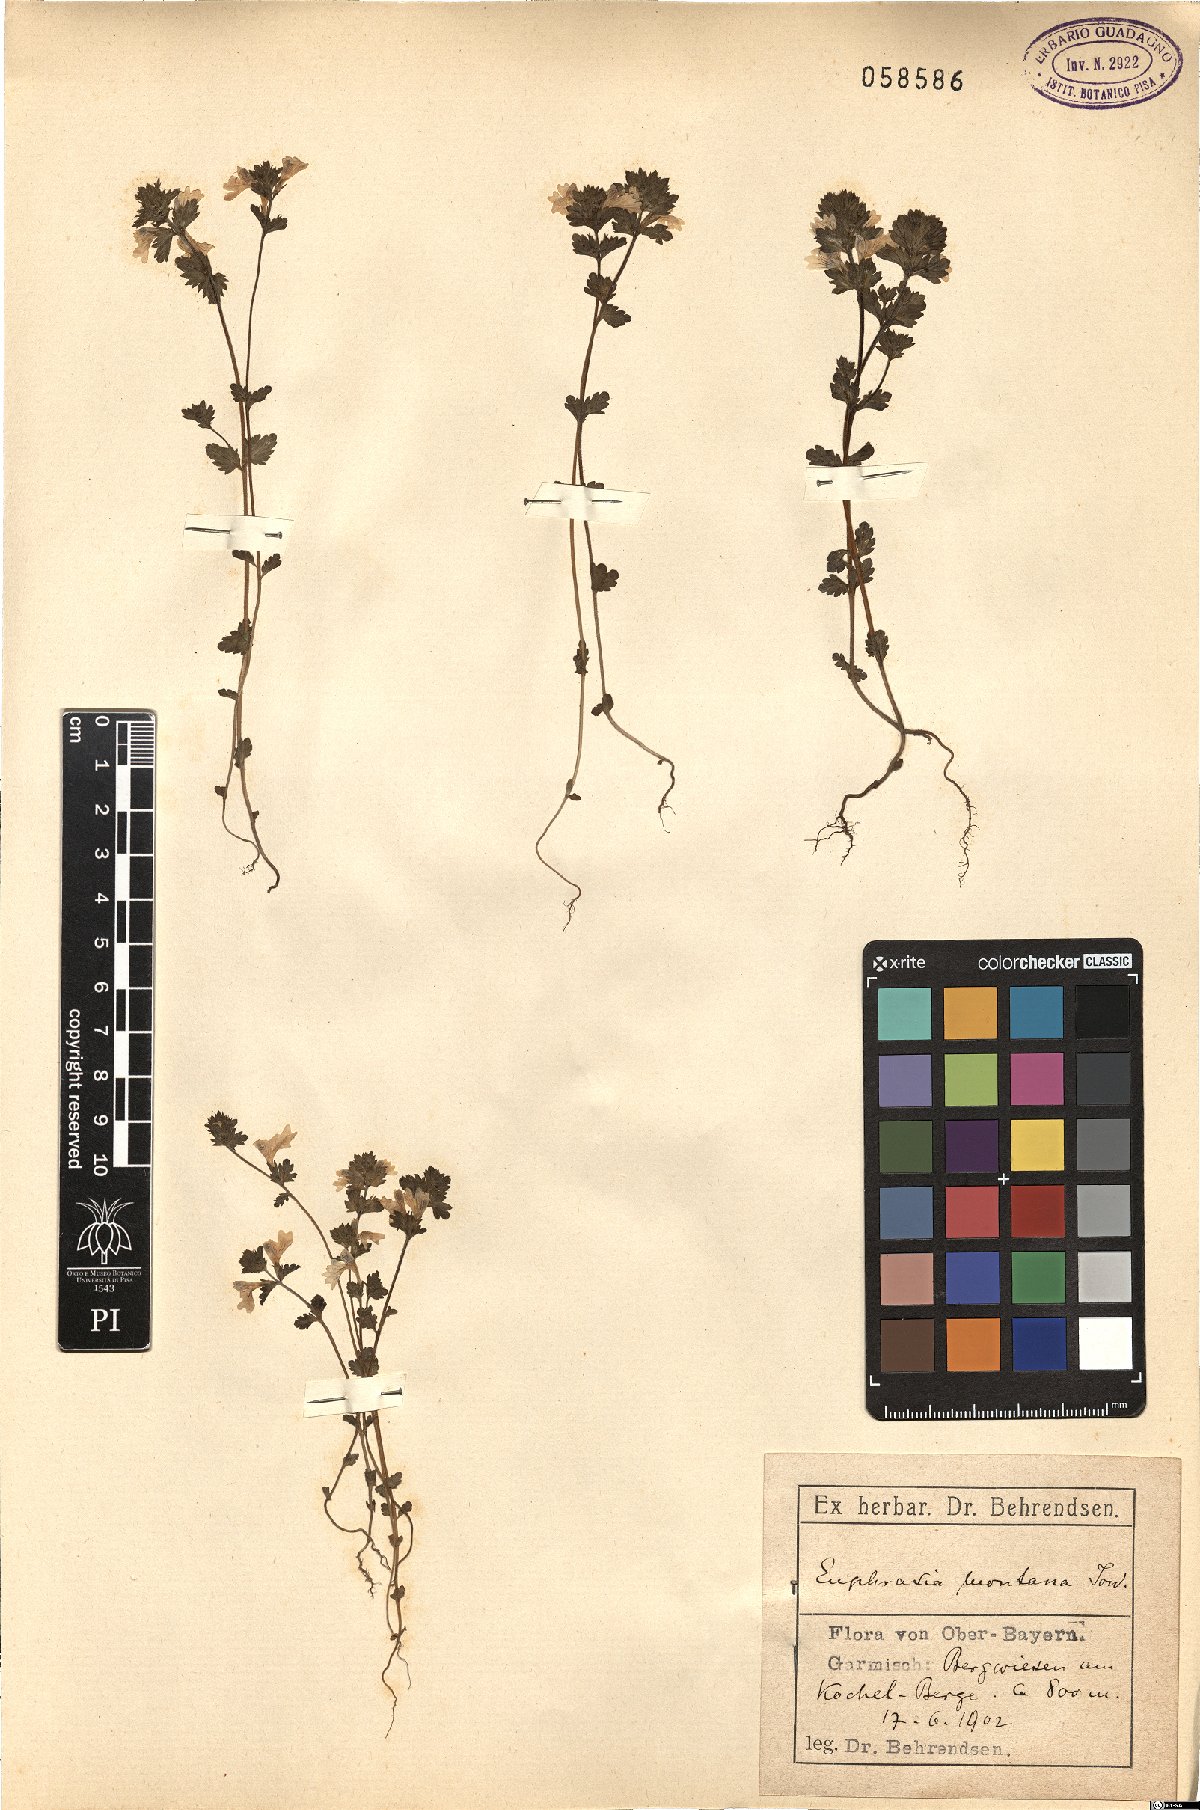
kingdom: Plantae
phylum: Tracheophyta
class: Magnoliopsida
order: Lamiales
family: Orobanchaceae
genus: Euphrasia
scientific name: Euphrasia officinalis
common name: Eyebright
